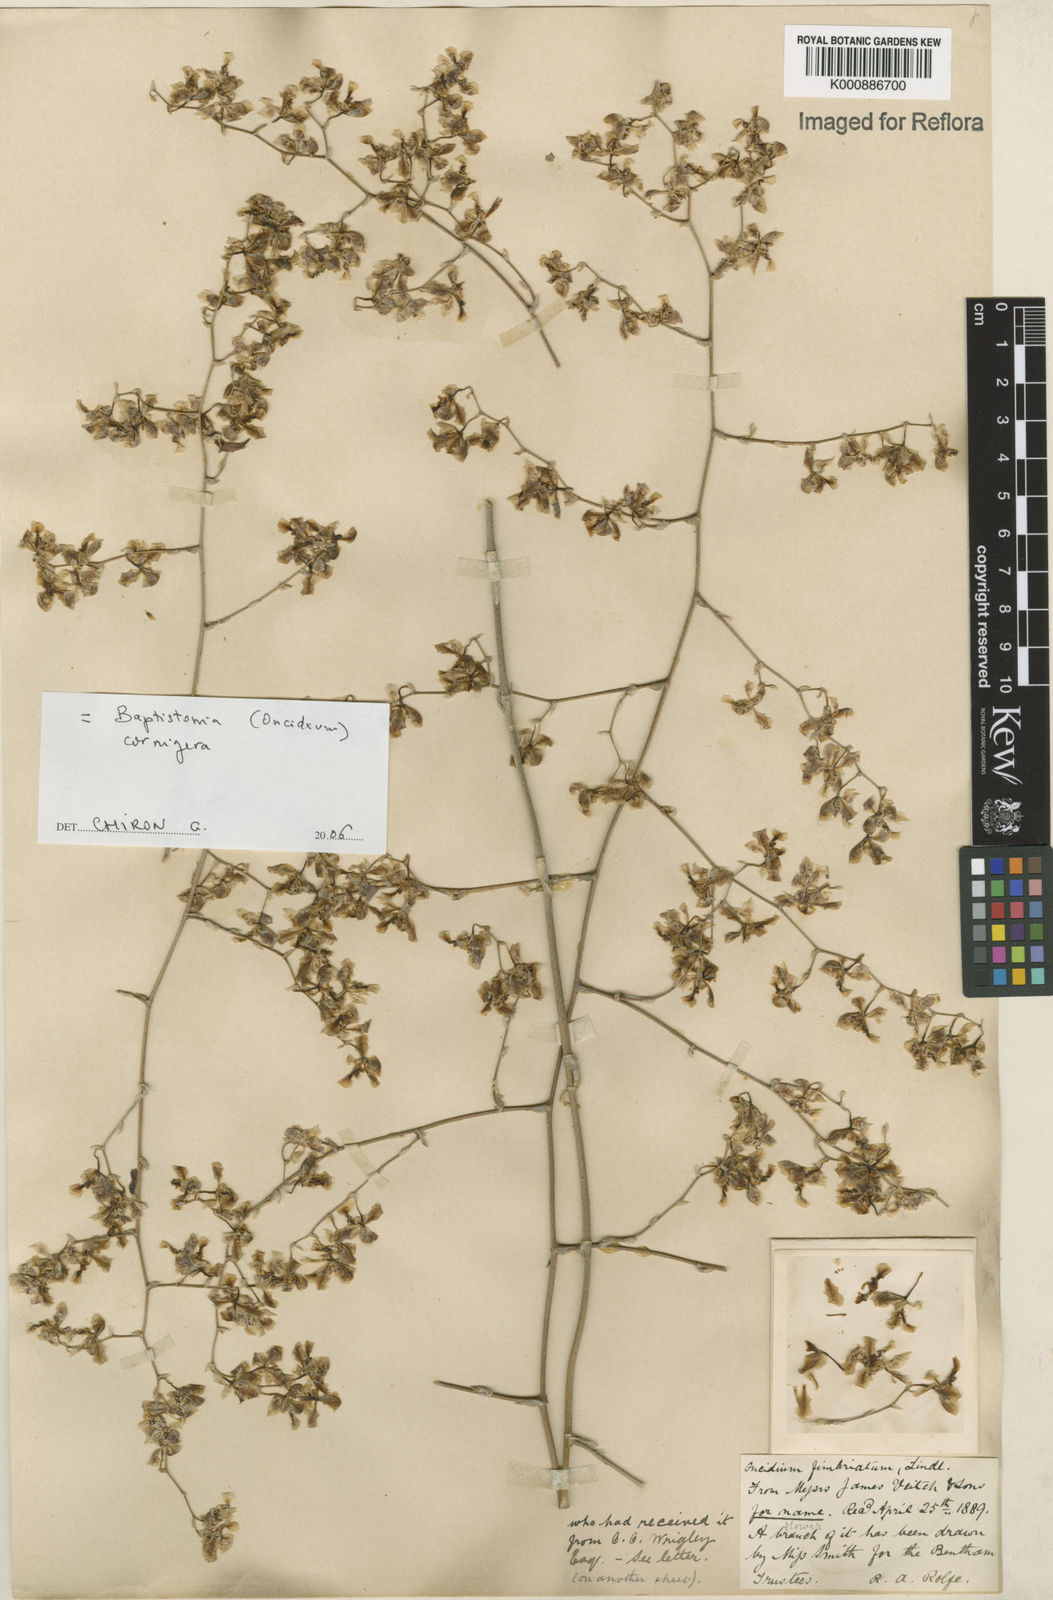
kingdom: Plantae
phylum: Tracheophyta
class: Liliopsida
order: Asparagales
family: Orchidaceae
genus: Gomesa
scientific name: Gomesa cornigera
